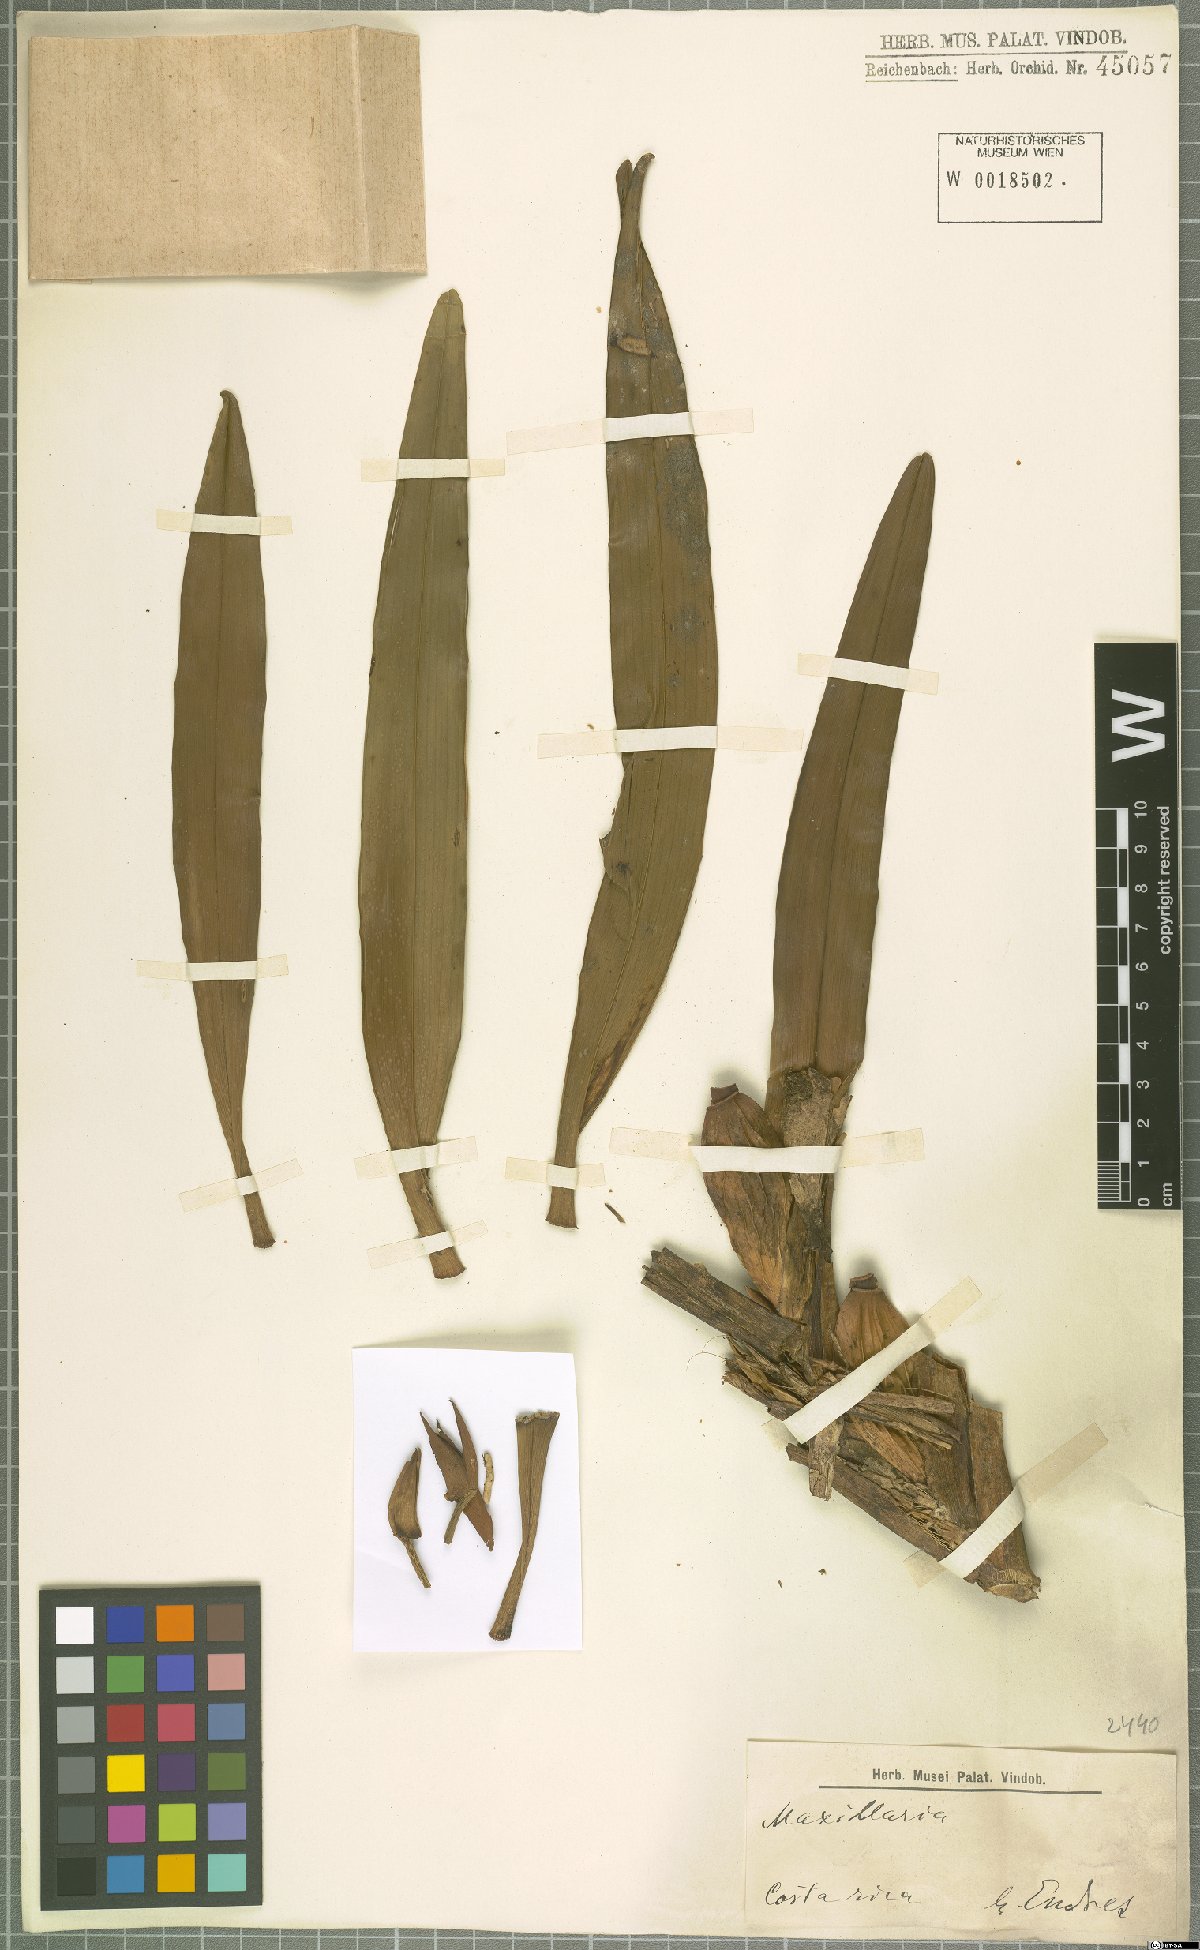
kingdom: Plantae
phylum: Tracheophyta
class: Liliopsida
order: Asparagales
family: Orchidaceae
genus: Maxillaria
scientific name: Maxillaria
